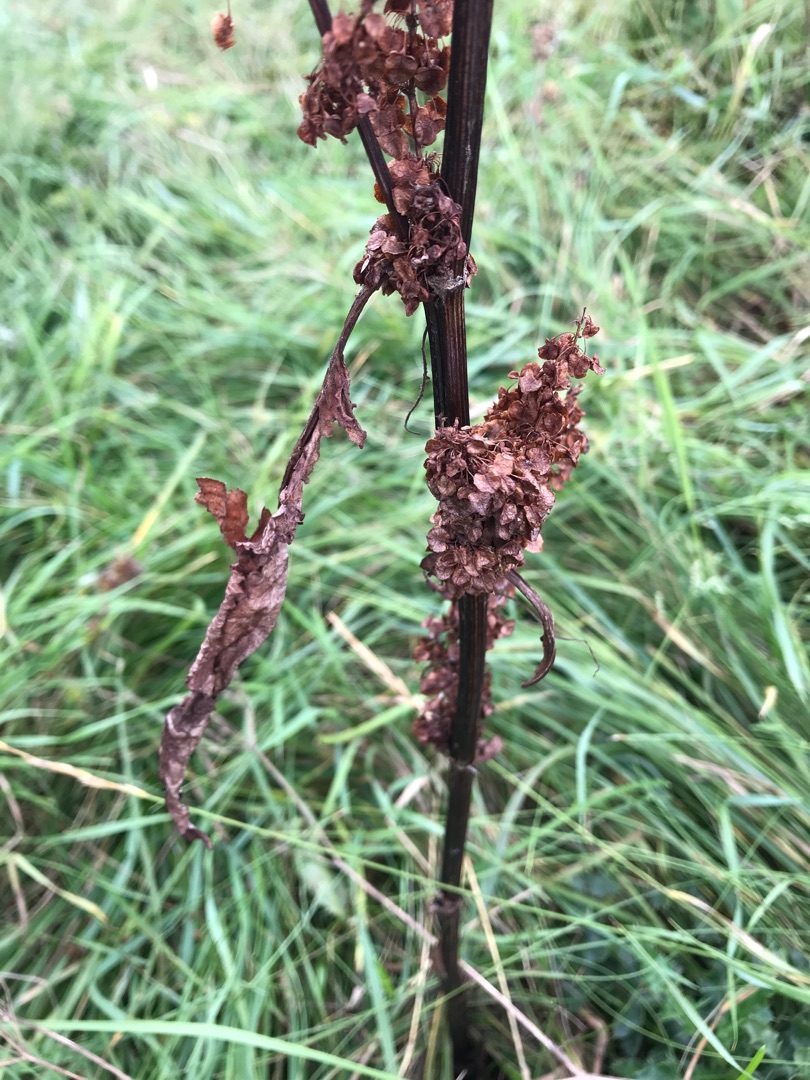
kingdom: Plantae
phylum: Tracheophyta
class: Magnoliopsida
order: Caryophyllales
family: Polygonaceae
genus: Rumex
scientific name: Rumex longifolius
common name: By-skræppe
